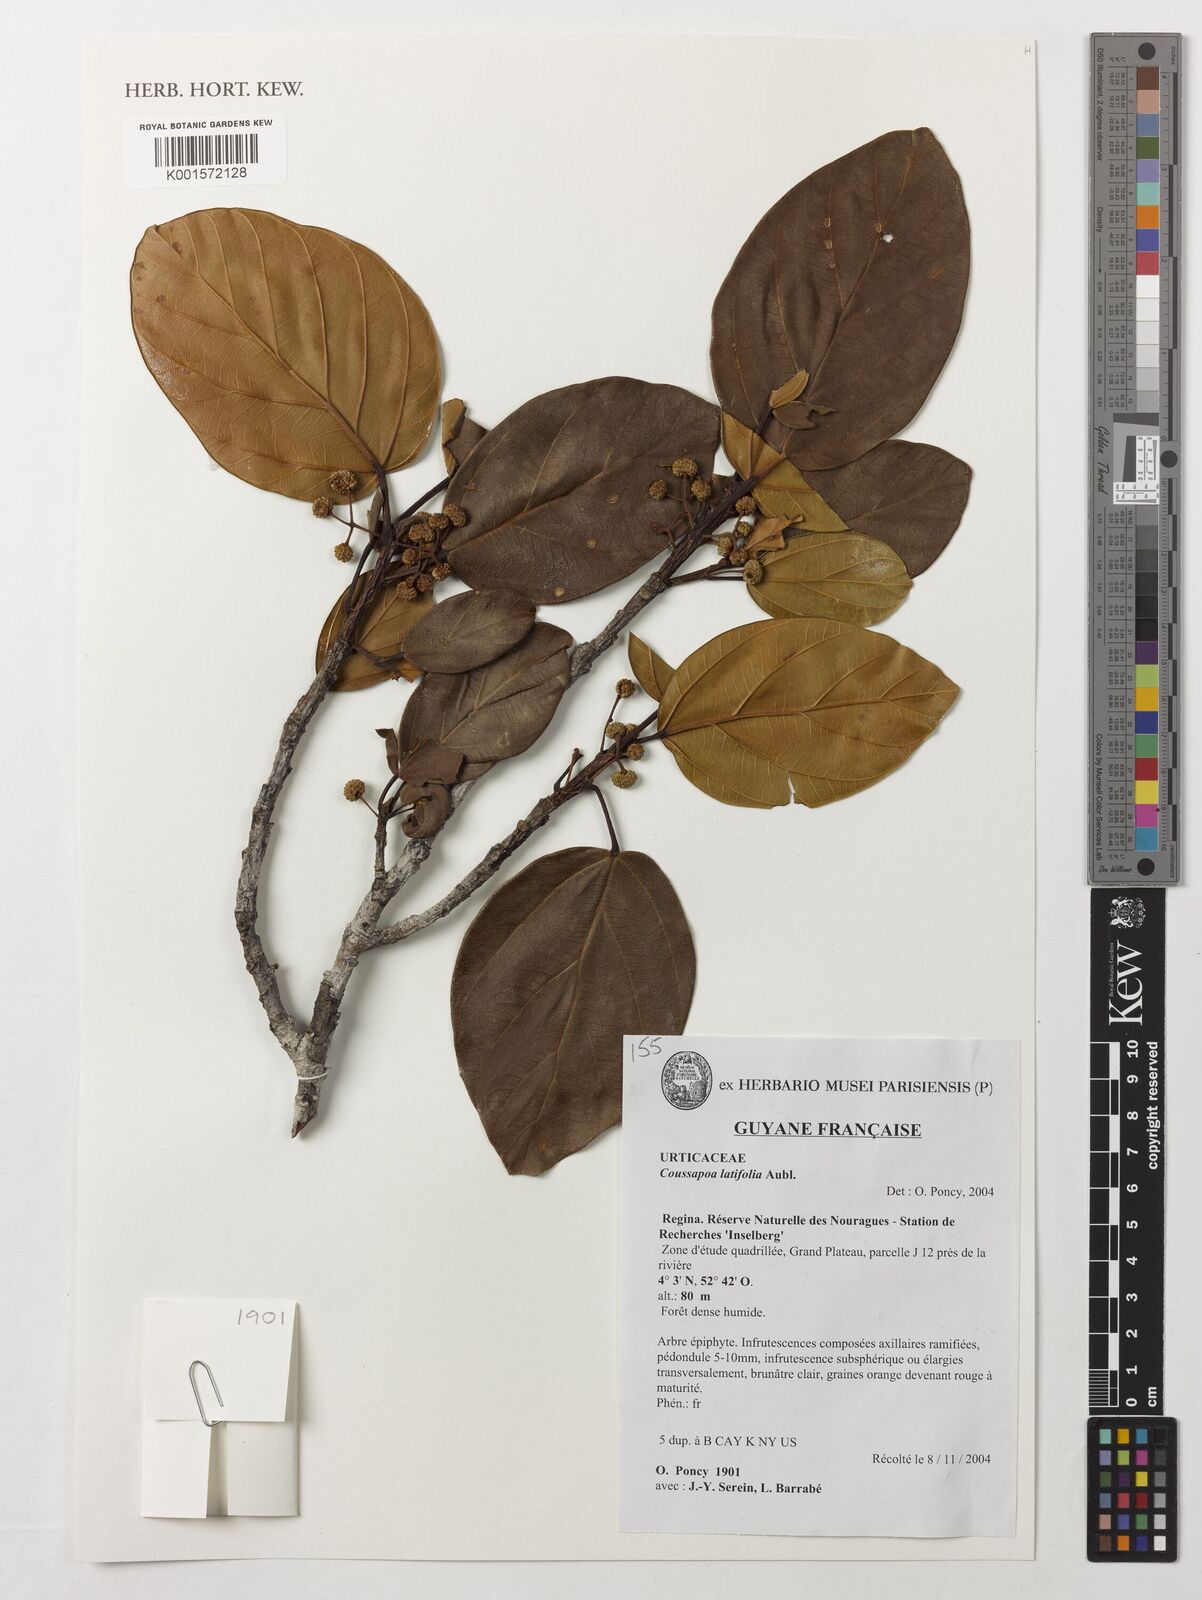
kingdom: Plantae
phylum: Tracheophyta
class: Magnoliopsida
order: Rosales
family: Urticaceae
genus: Coussapoa
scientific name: Coussapoa latifolia
